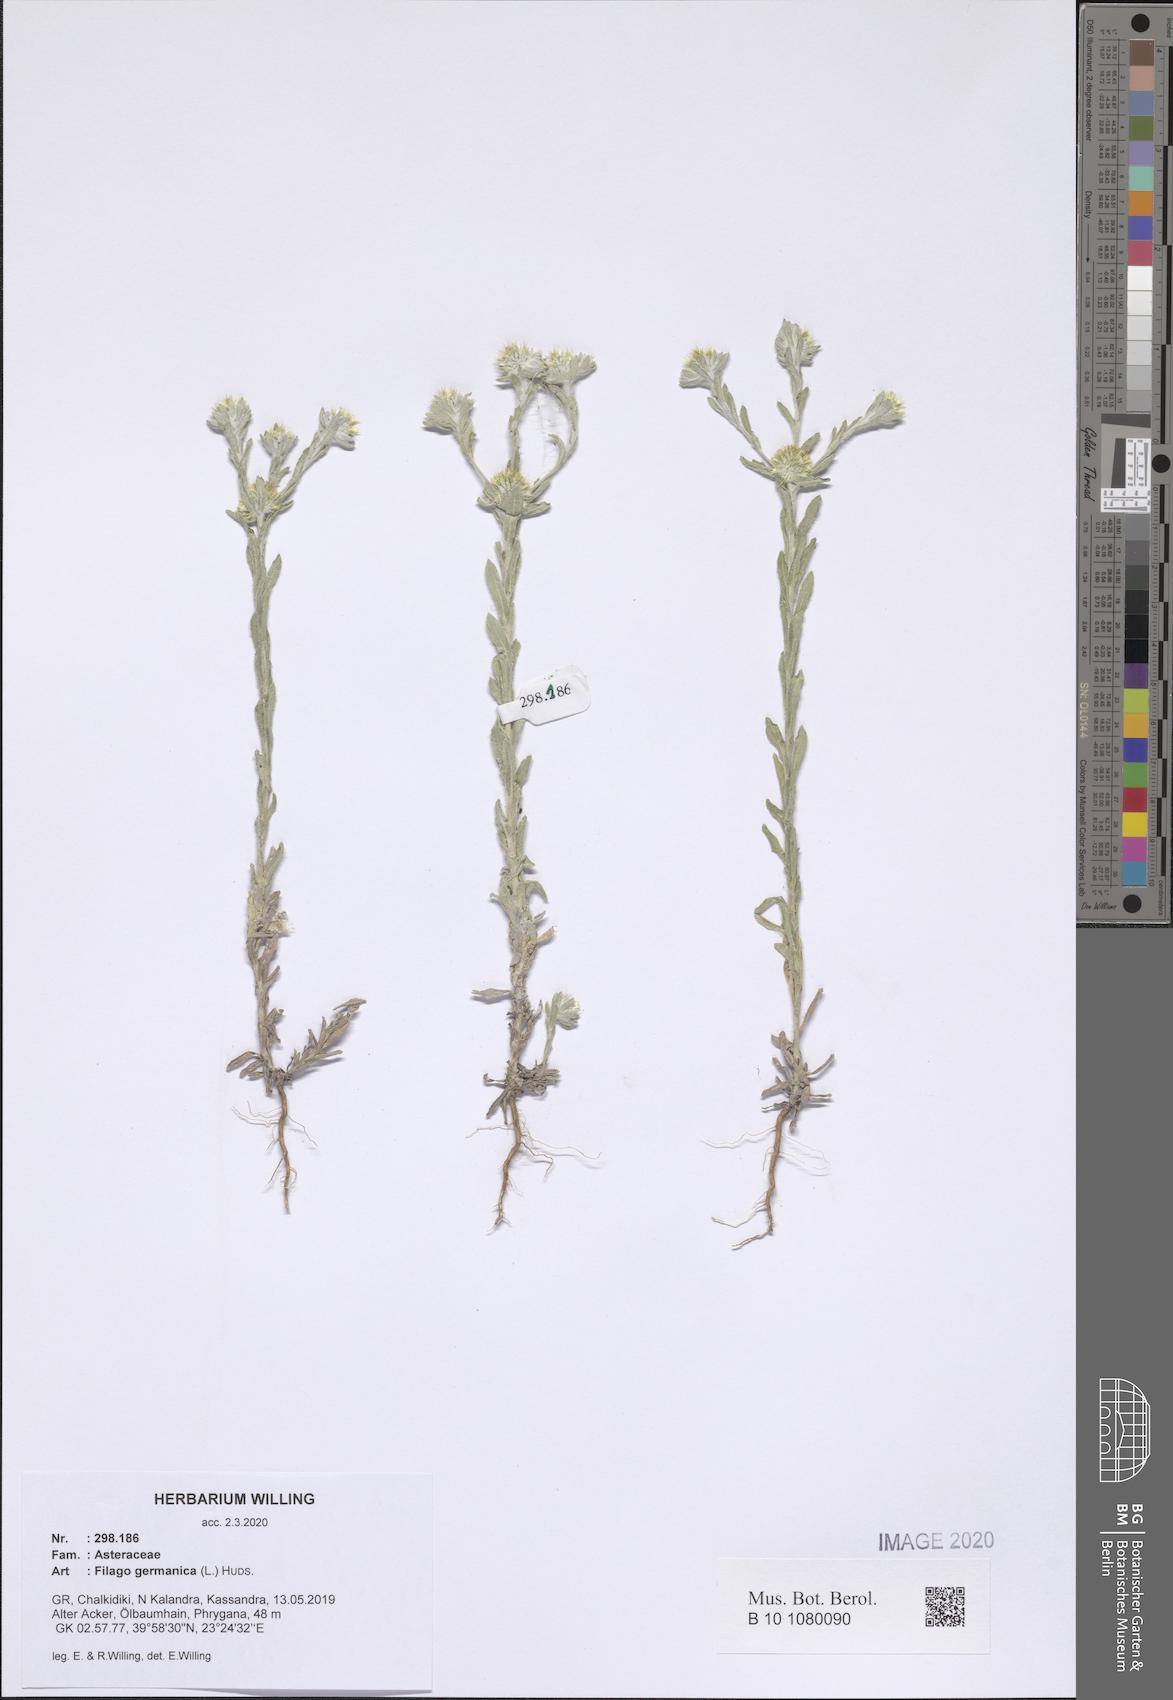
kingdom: Plantae
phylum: Tracheophyta
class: Magnoliopsida
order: Asterales
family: Asteraceae
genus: Filago
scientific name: Filago germanica
